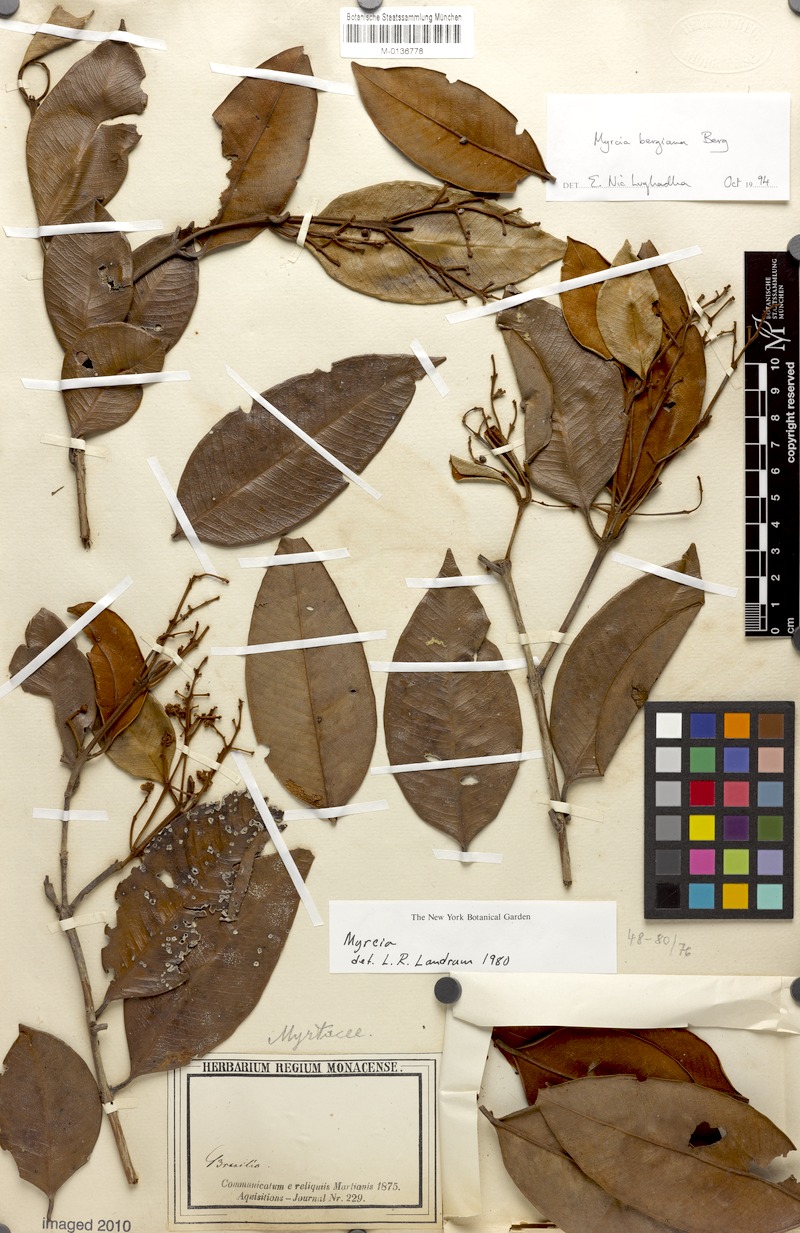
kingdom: Plantae
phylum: Tracheophyta
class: Magnoliopsida
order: Myrtales
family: Myrtaceae
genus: Myrcia
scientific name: Myrcia bergiana
